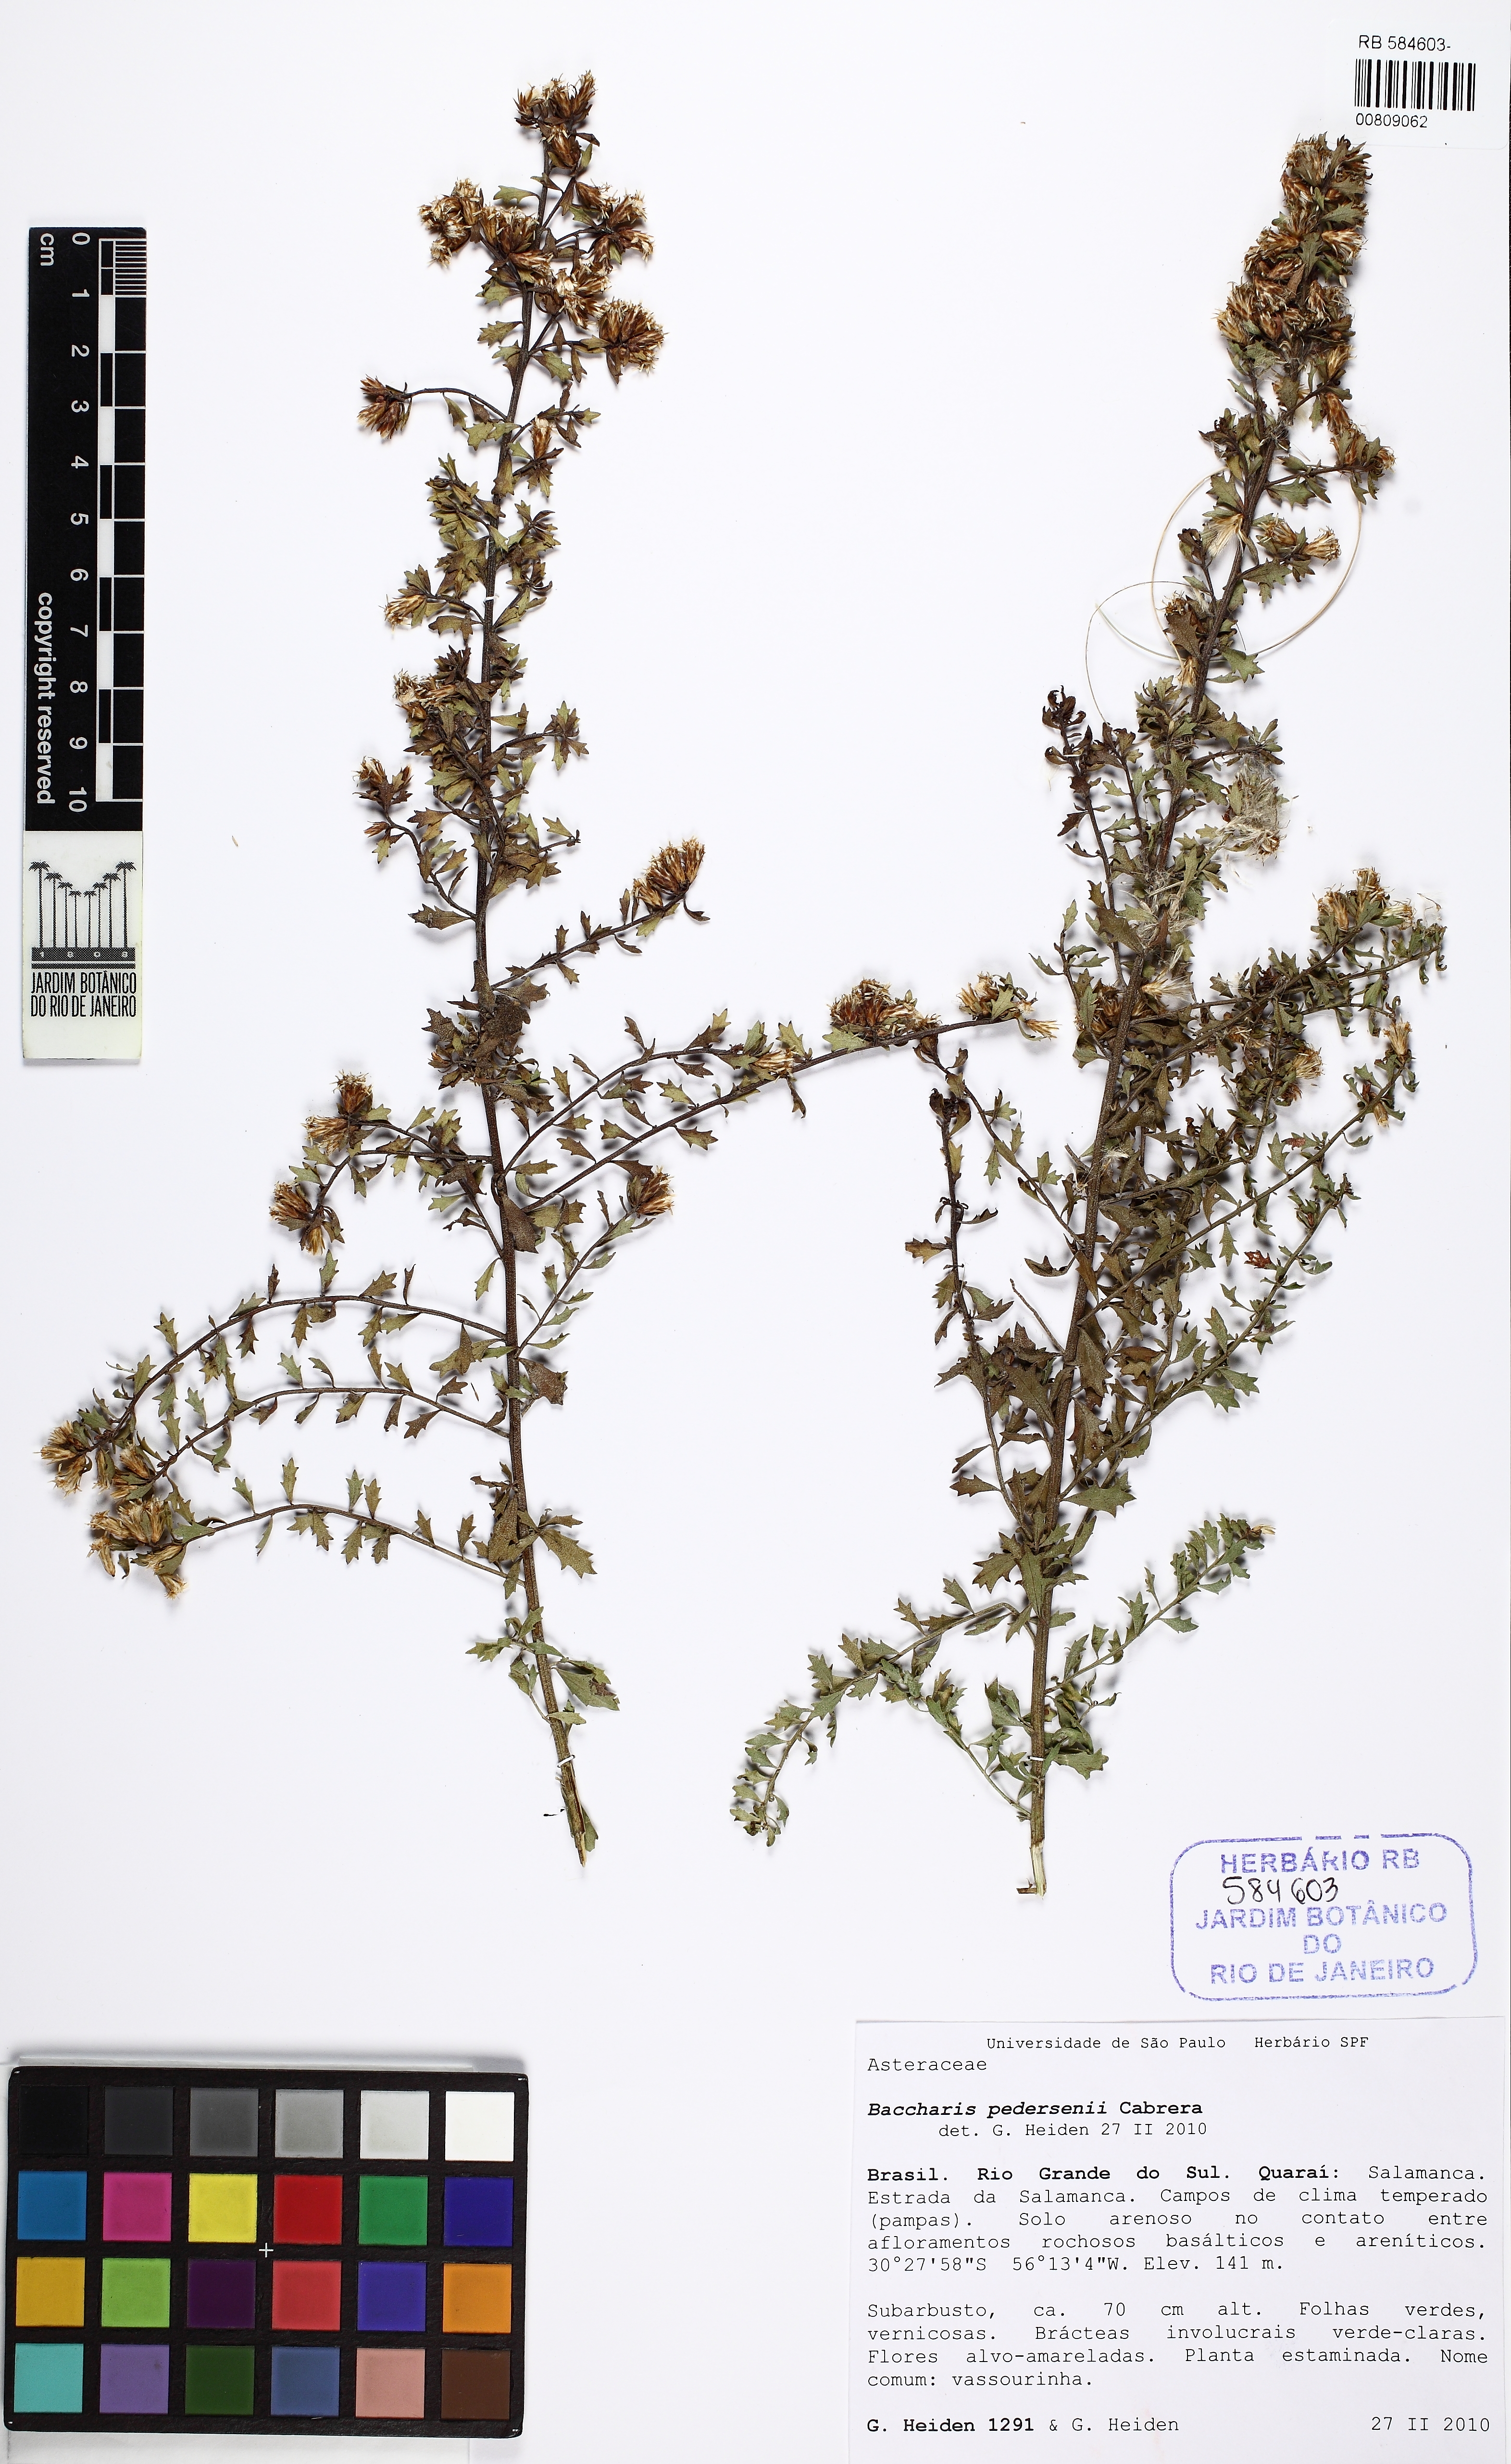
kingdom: Plantae
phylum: Tracheophyta
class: Magnoliopsida
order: Asterales
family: Asteraceae
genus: Baccharis
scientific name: Baccharis pedersenii
